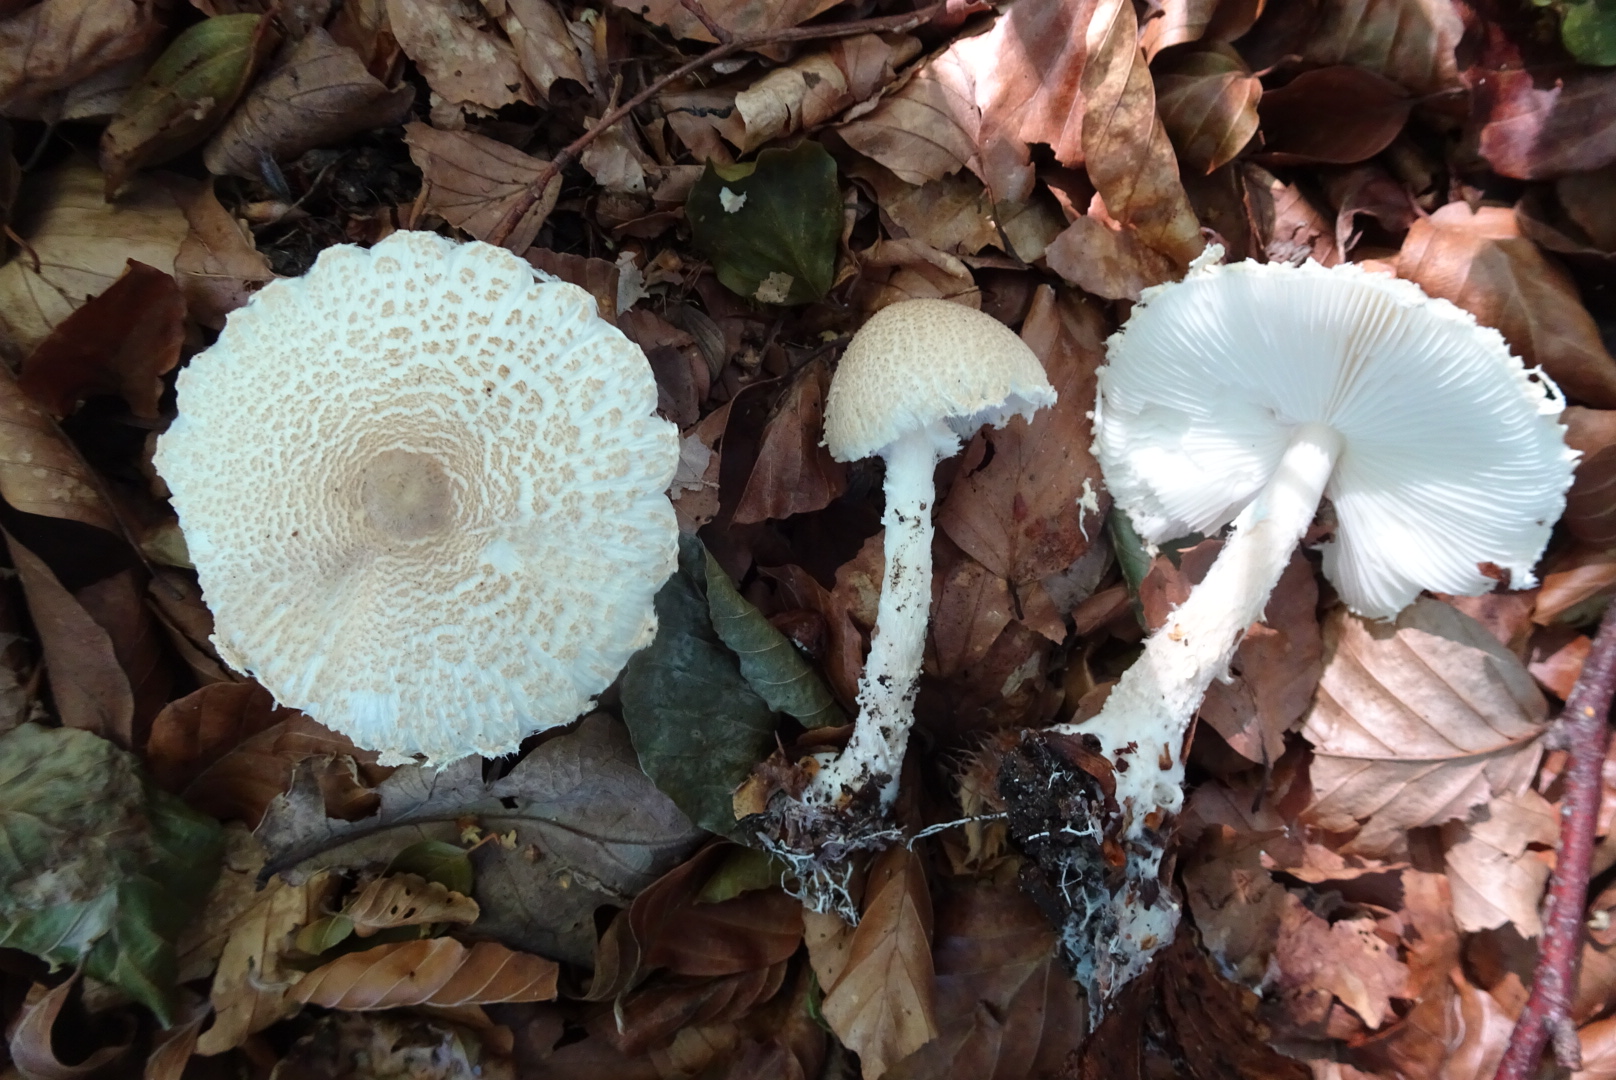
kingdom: Fungi
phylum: Basidiomycota
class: Agaricomycetes
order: Agaricales
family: Agaricaceae
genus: Lepiota
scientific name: Lepiota clypeolaria
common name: flosset parasolhat
